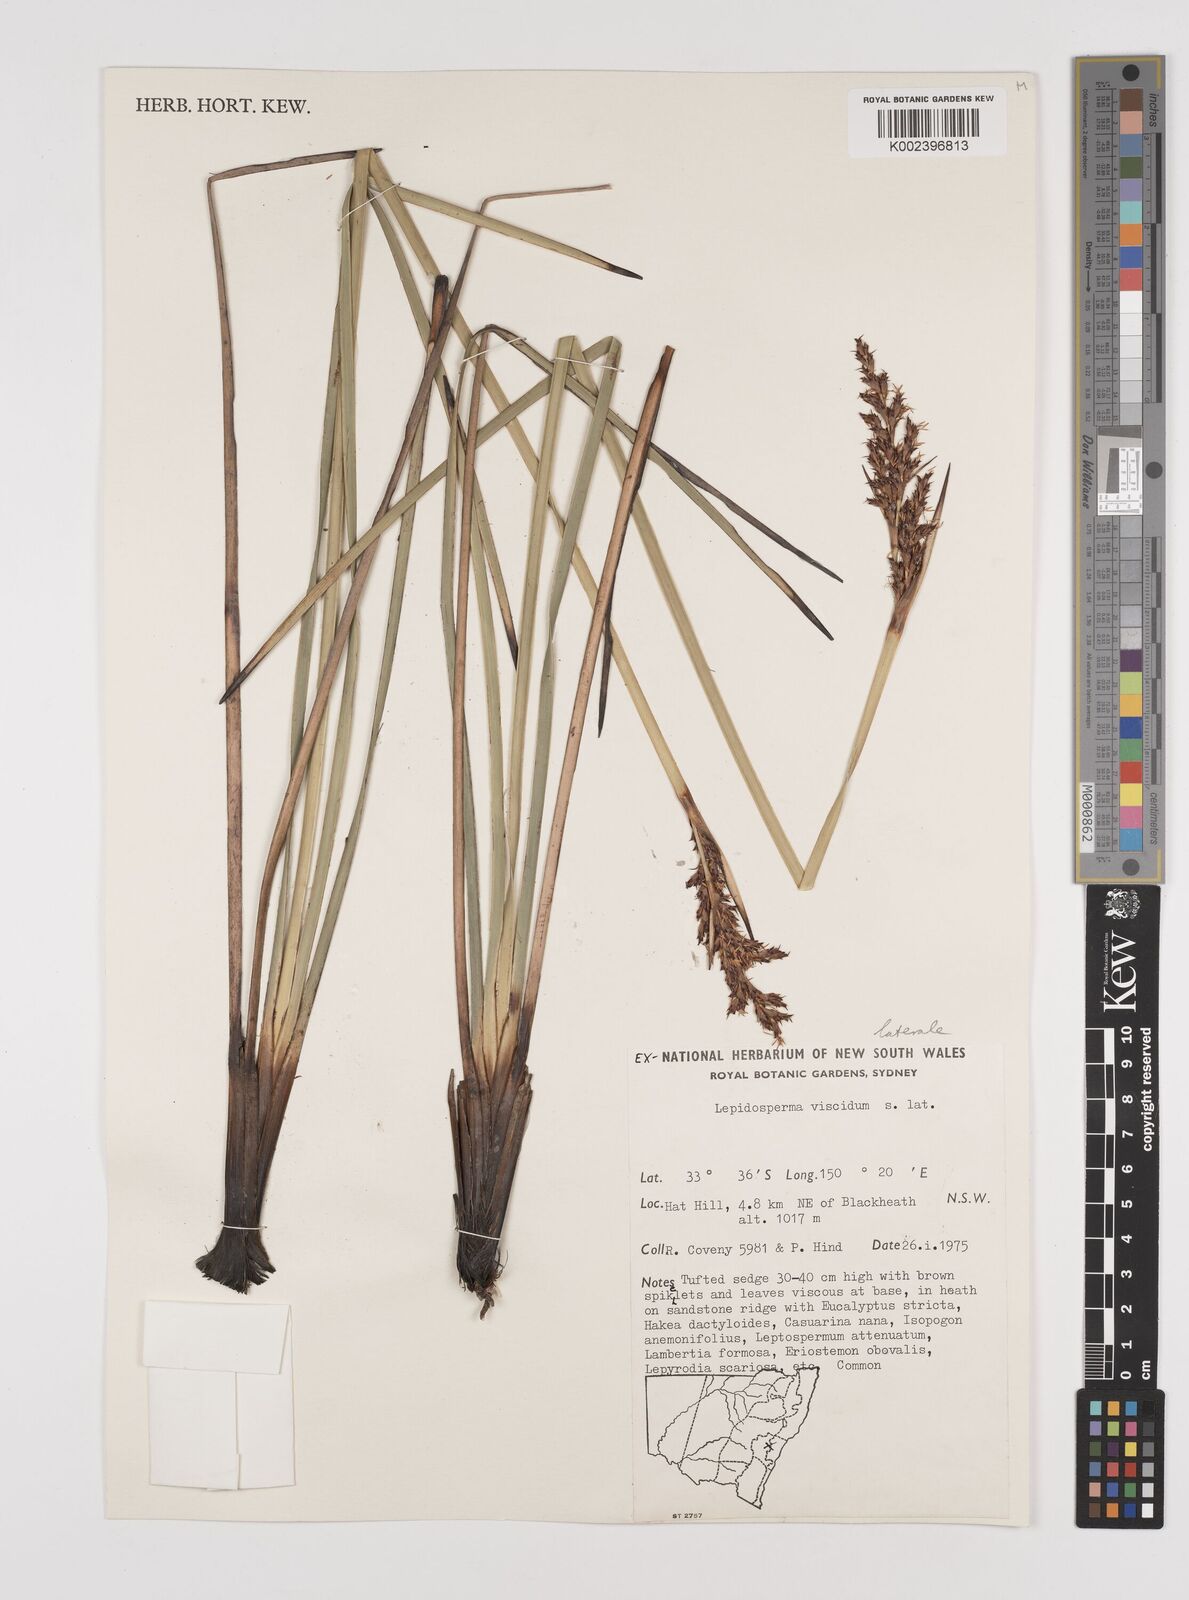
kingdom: Plantae
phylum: Tracheophyta
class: Liliopsida
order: Poales
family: Cyperaceae
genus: Lepidosperma
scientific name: Lepidosperma laterale
